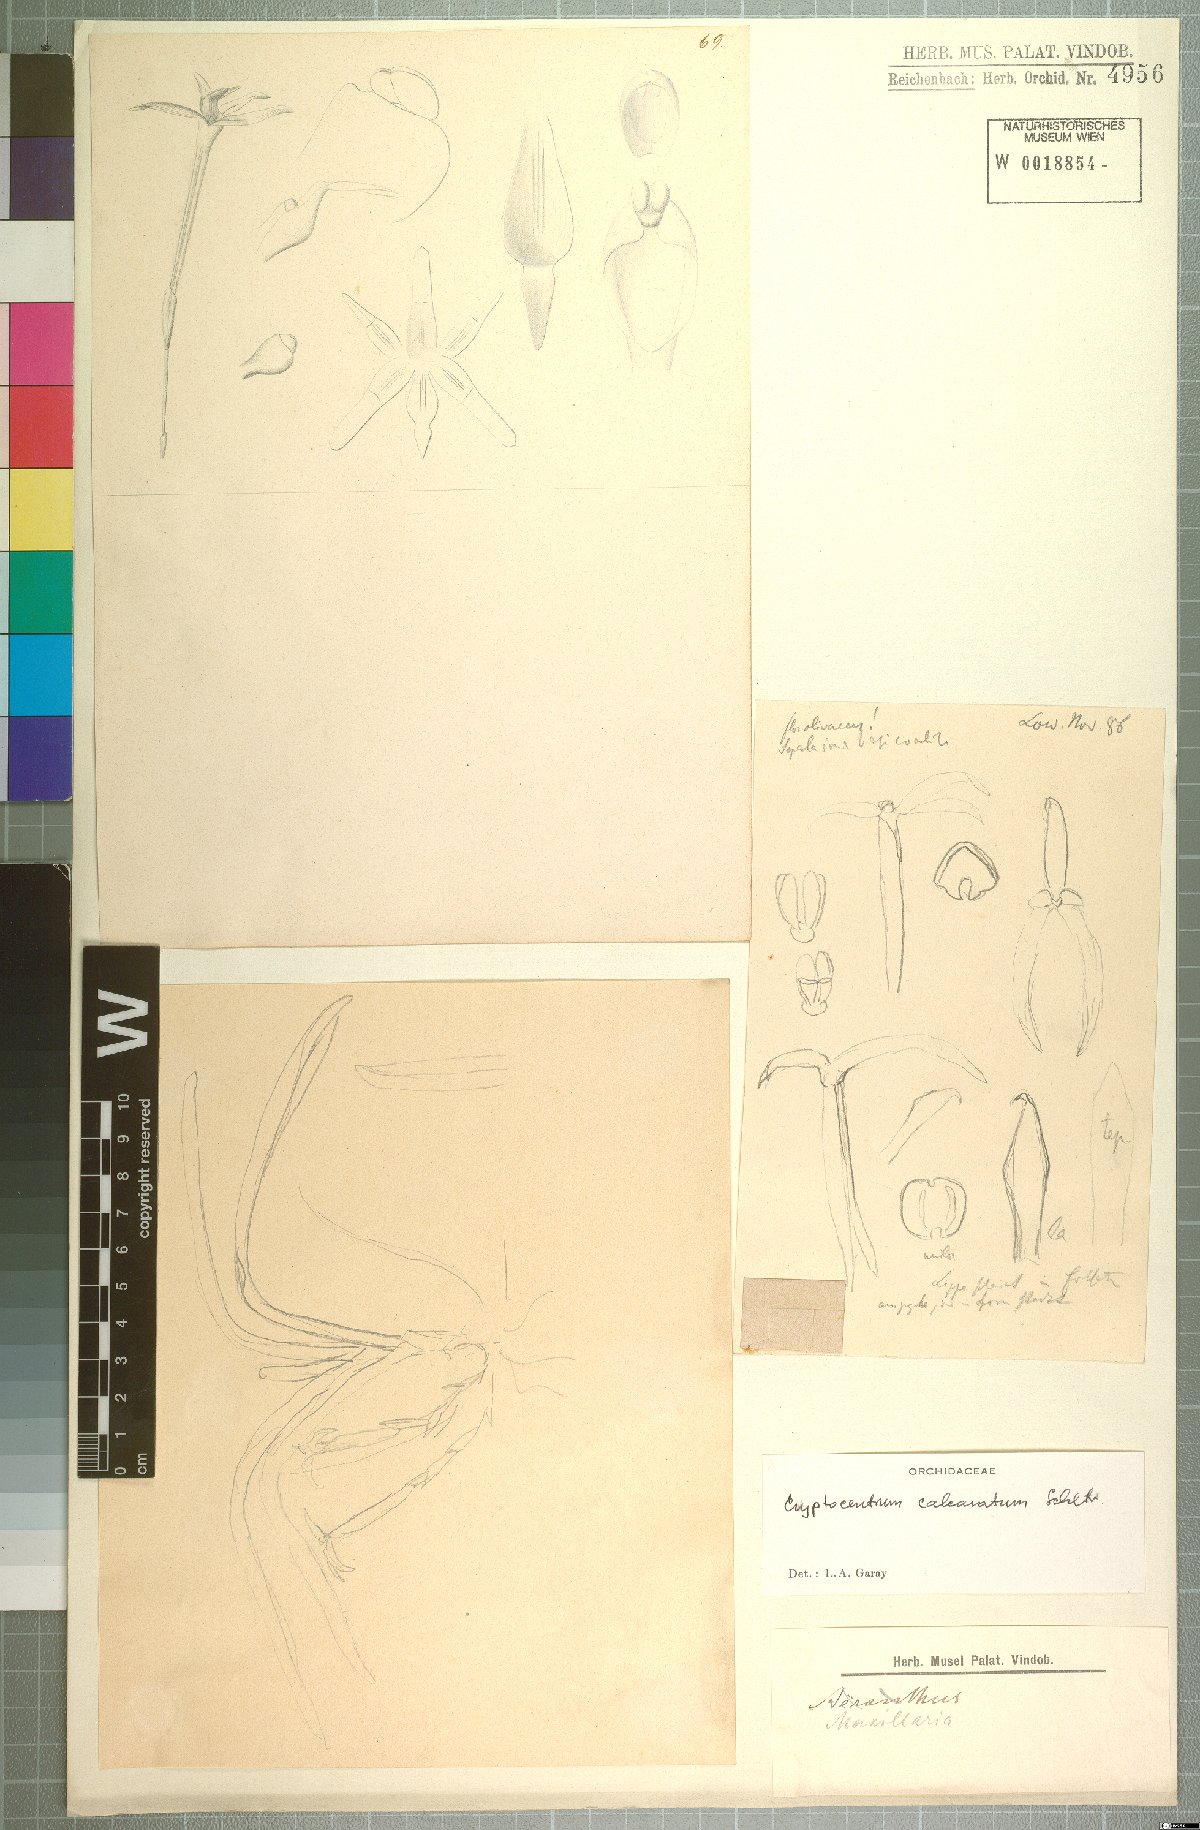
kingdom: Plantae
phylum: Tracheophyta
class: Liliopsida
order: Asparagales
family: Orchidaceae
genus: Maxillaria
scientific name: Maxillaria calcarata
